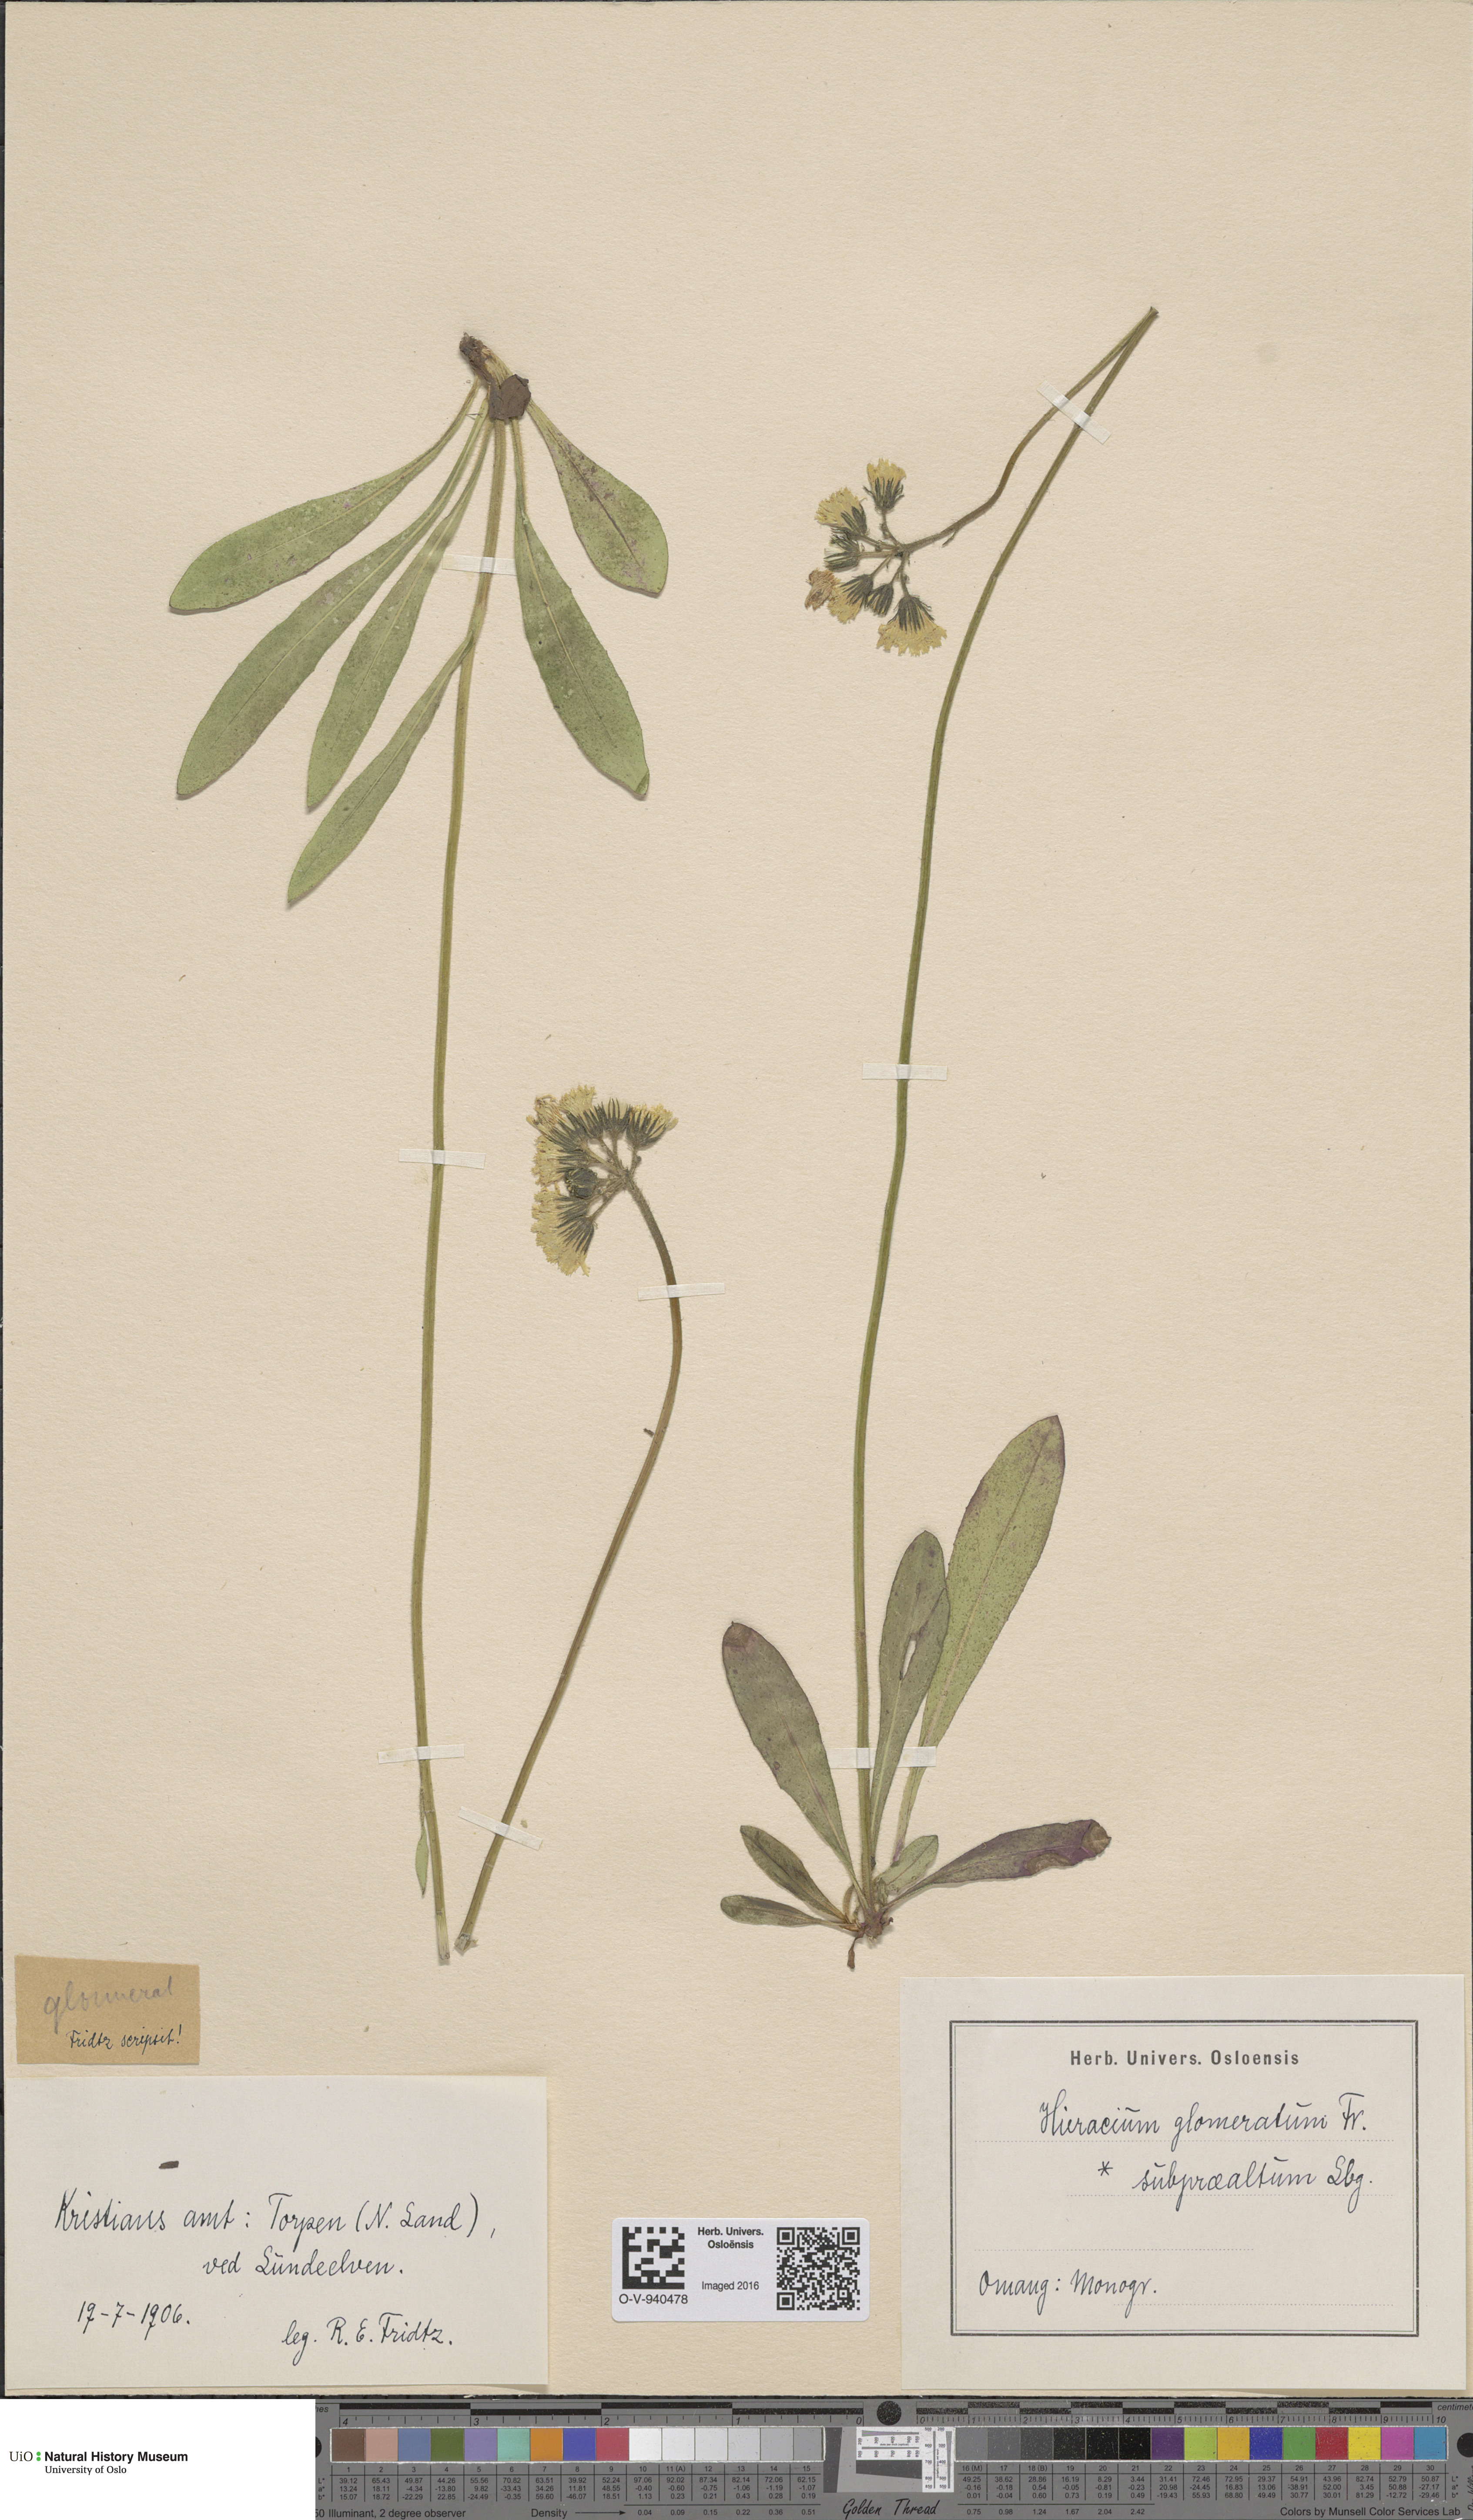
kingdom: Plantae
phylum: Tracheophyta
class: Magnoliopsida
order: Asterales
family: Asteraceae
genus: Pilosella
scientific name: Pilosella glomerata
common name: Queen devil hawkweed
